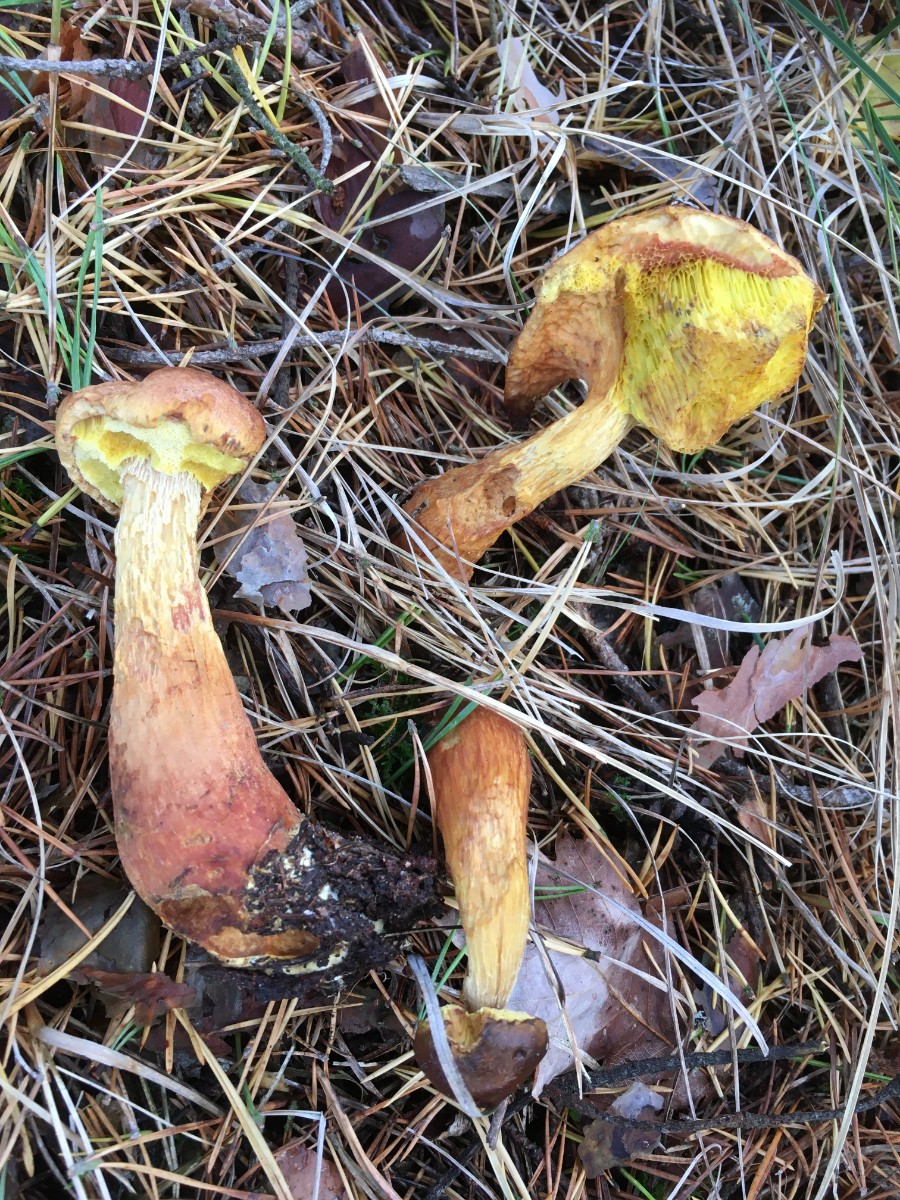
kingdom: Fungi
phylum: Basidiomycota
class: Agaricomycetes
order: Boletales
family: Boletaceae
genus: Aureoboletus
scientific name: Aureoboletus projectellus
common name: ribbestokket rørhat
